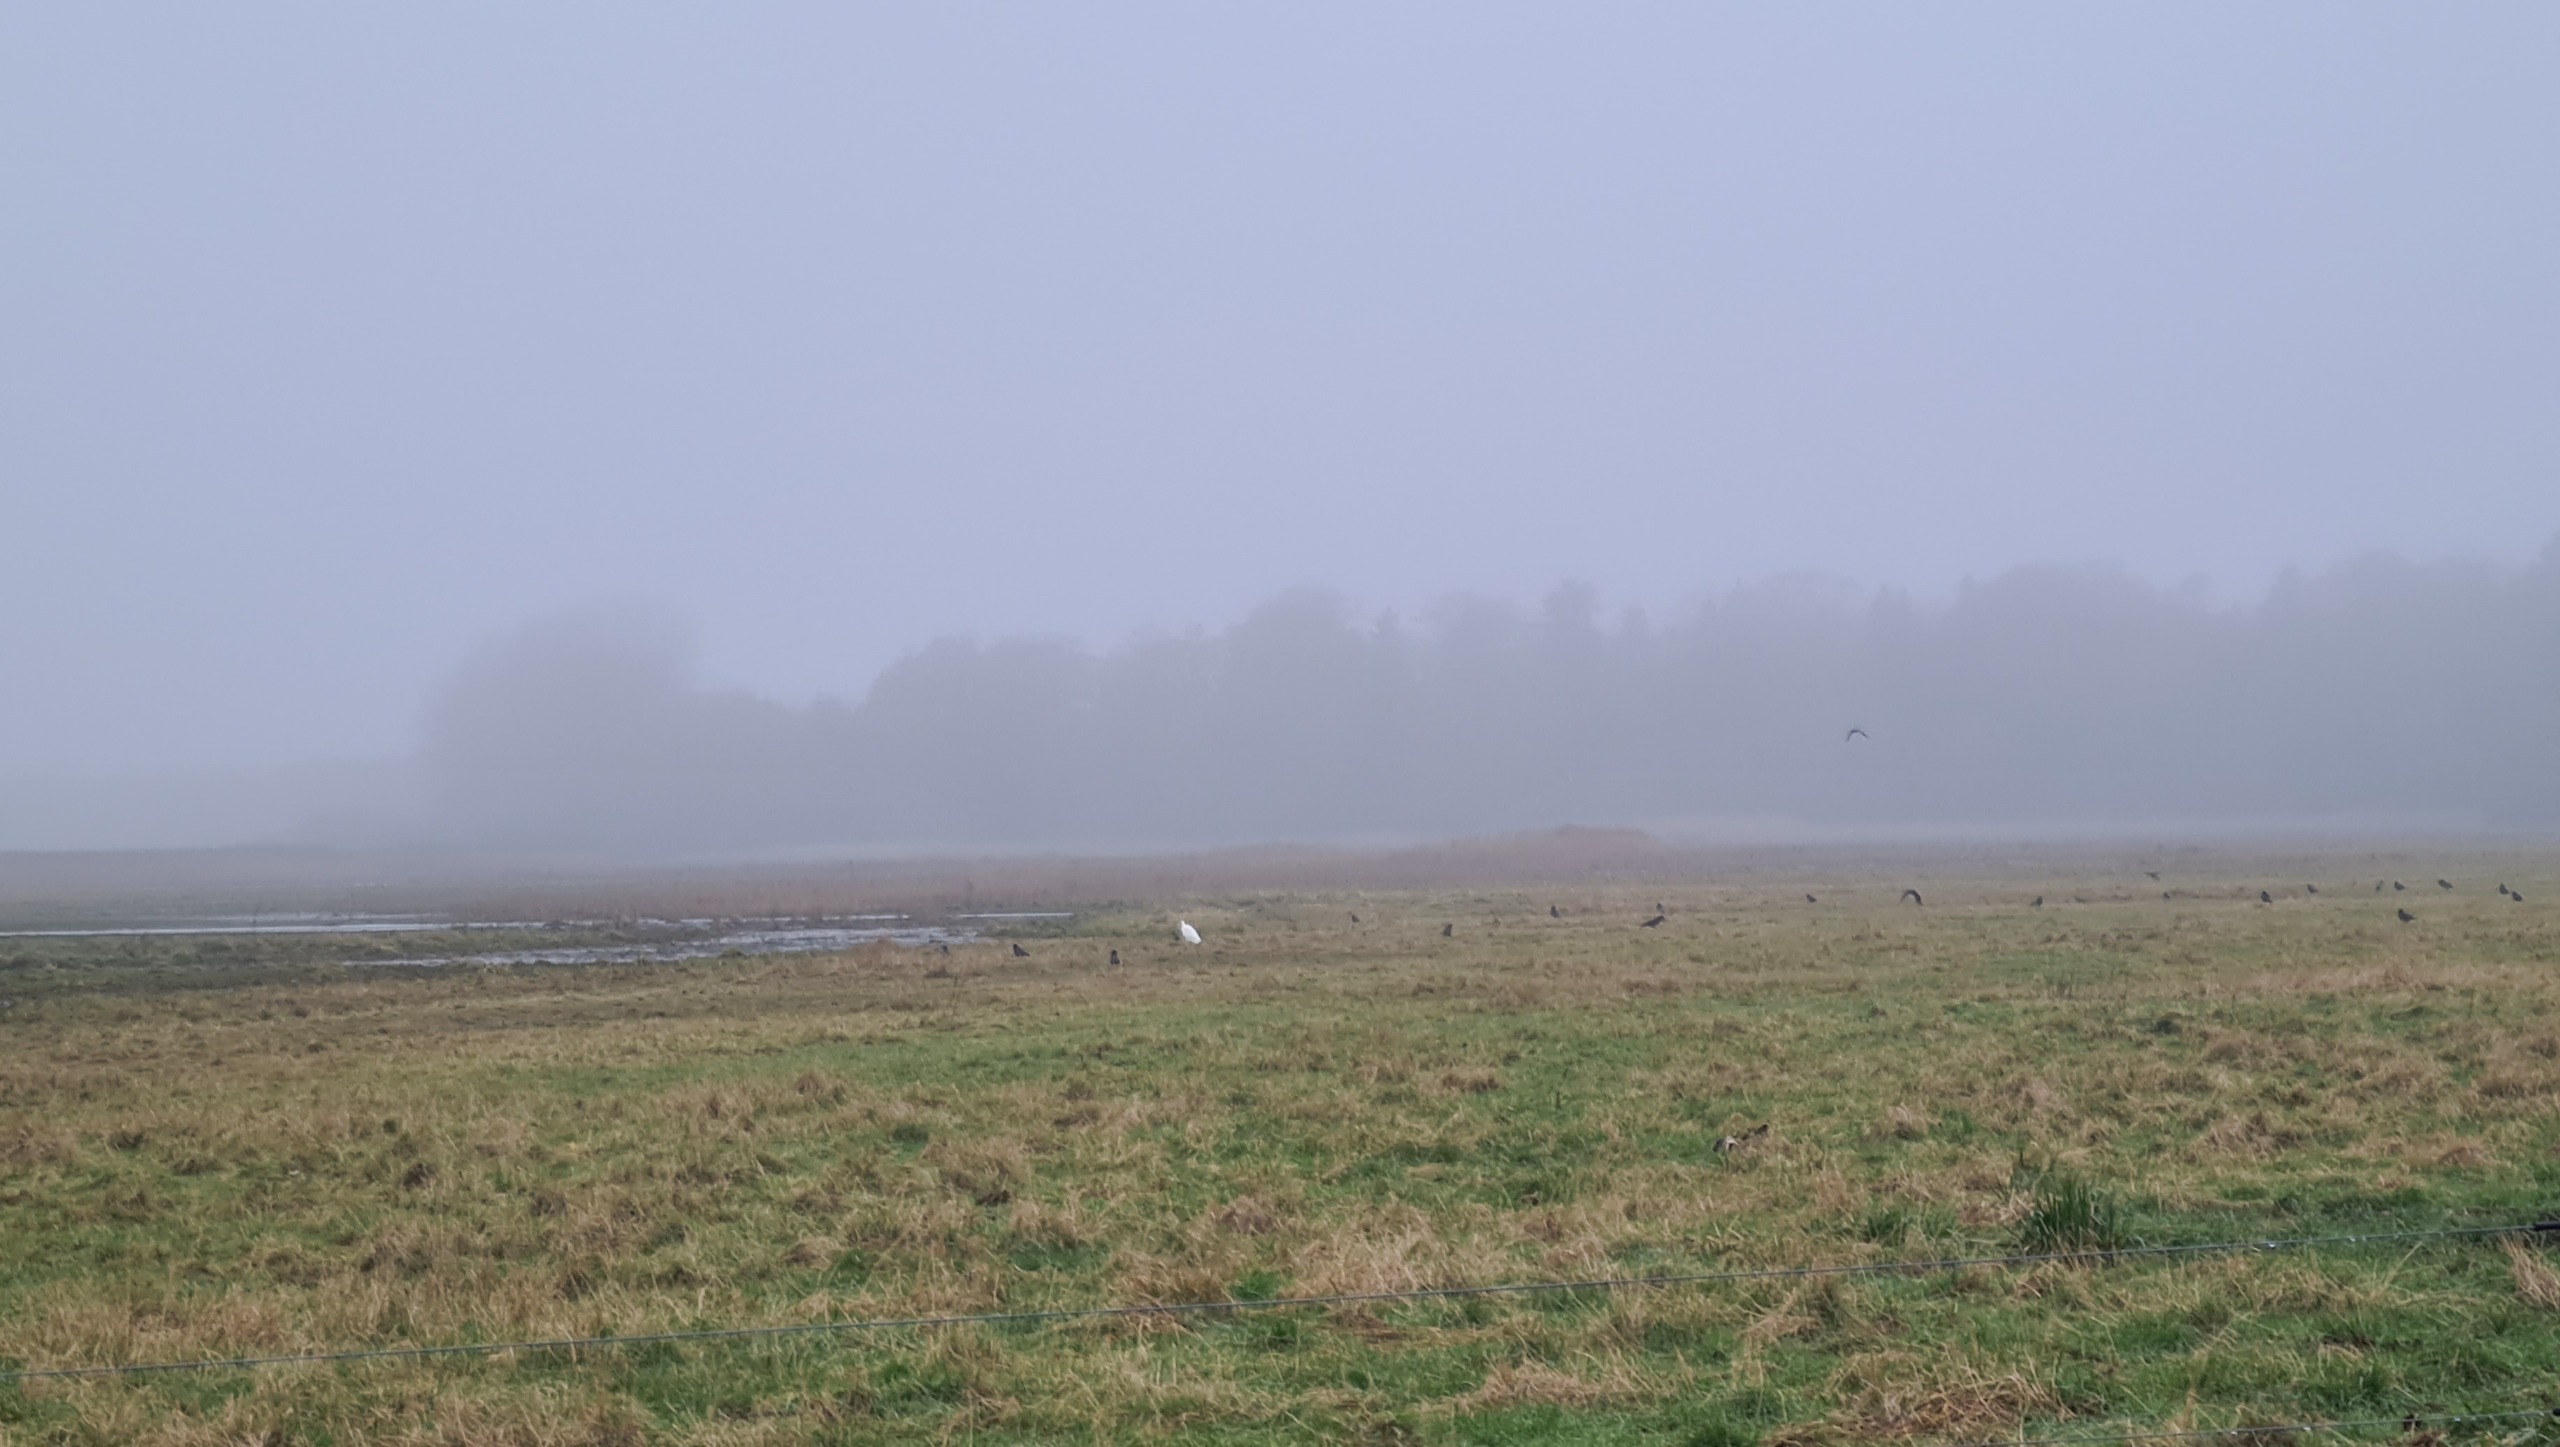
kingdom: Animalia
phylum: Chordata
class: Aves
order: Pelecaniformes
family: Ardeidae
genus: Ardea
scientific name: Ardea alba
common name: Sølvhejre
